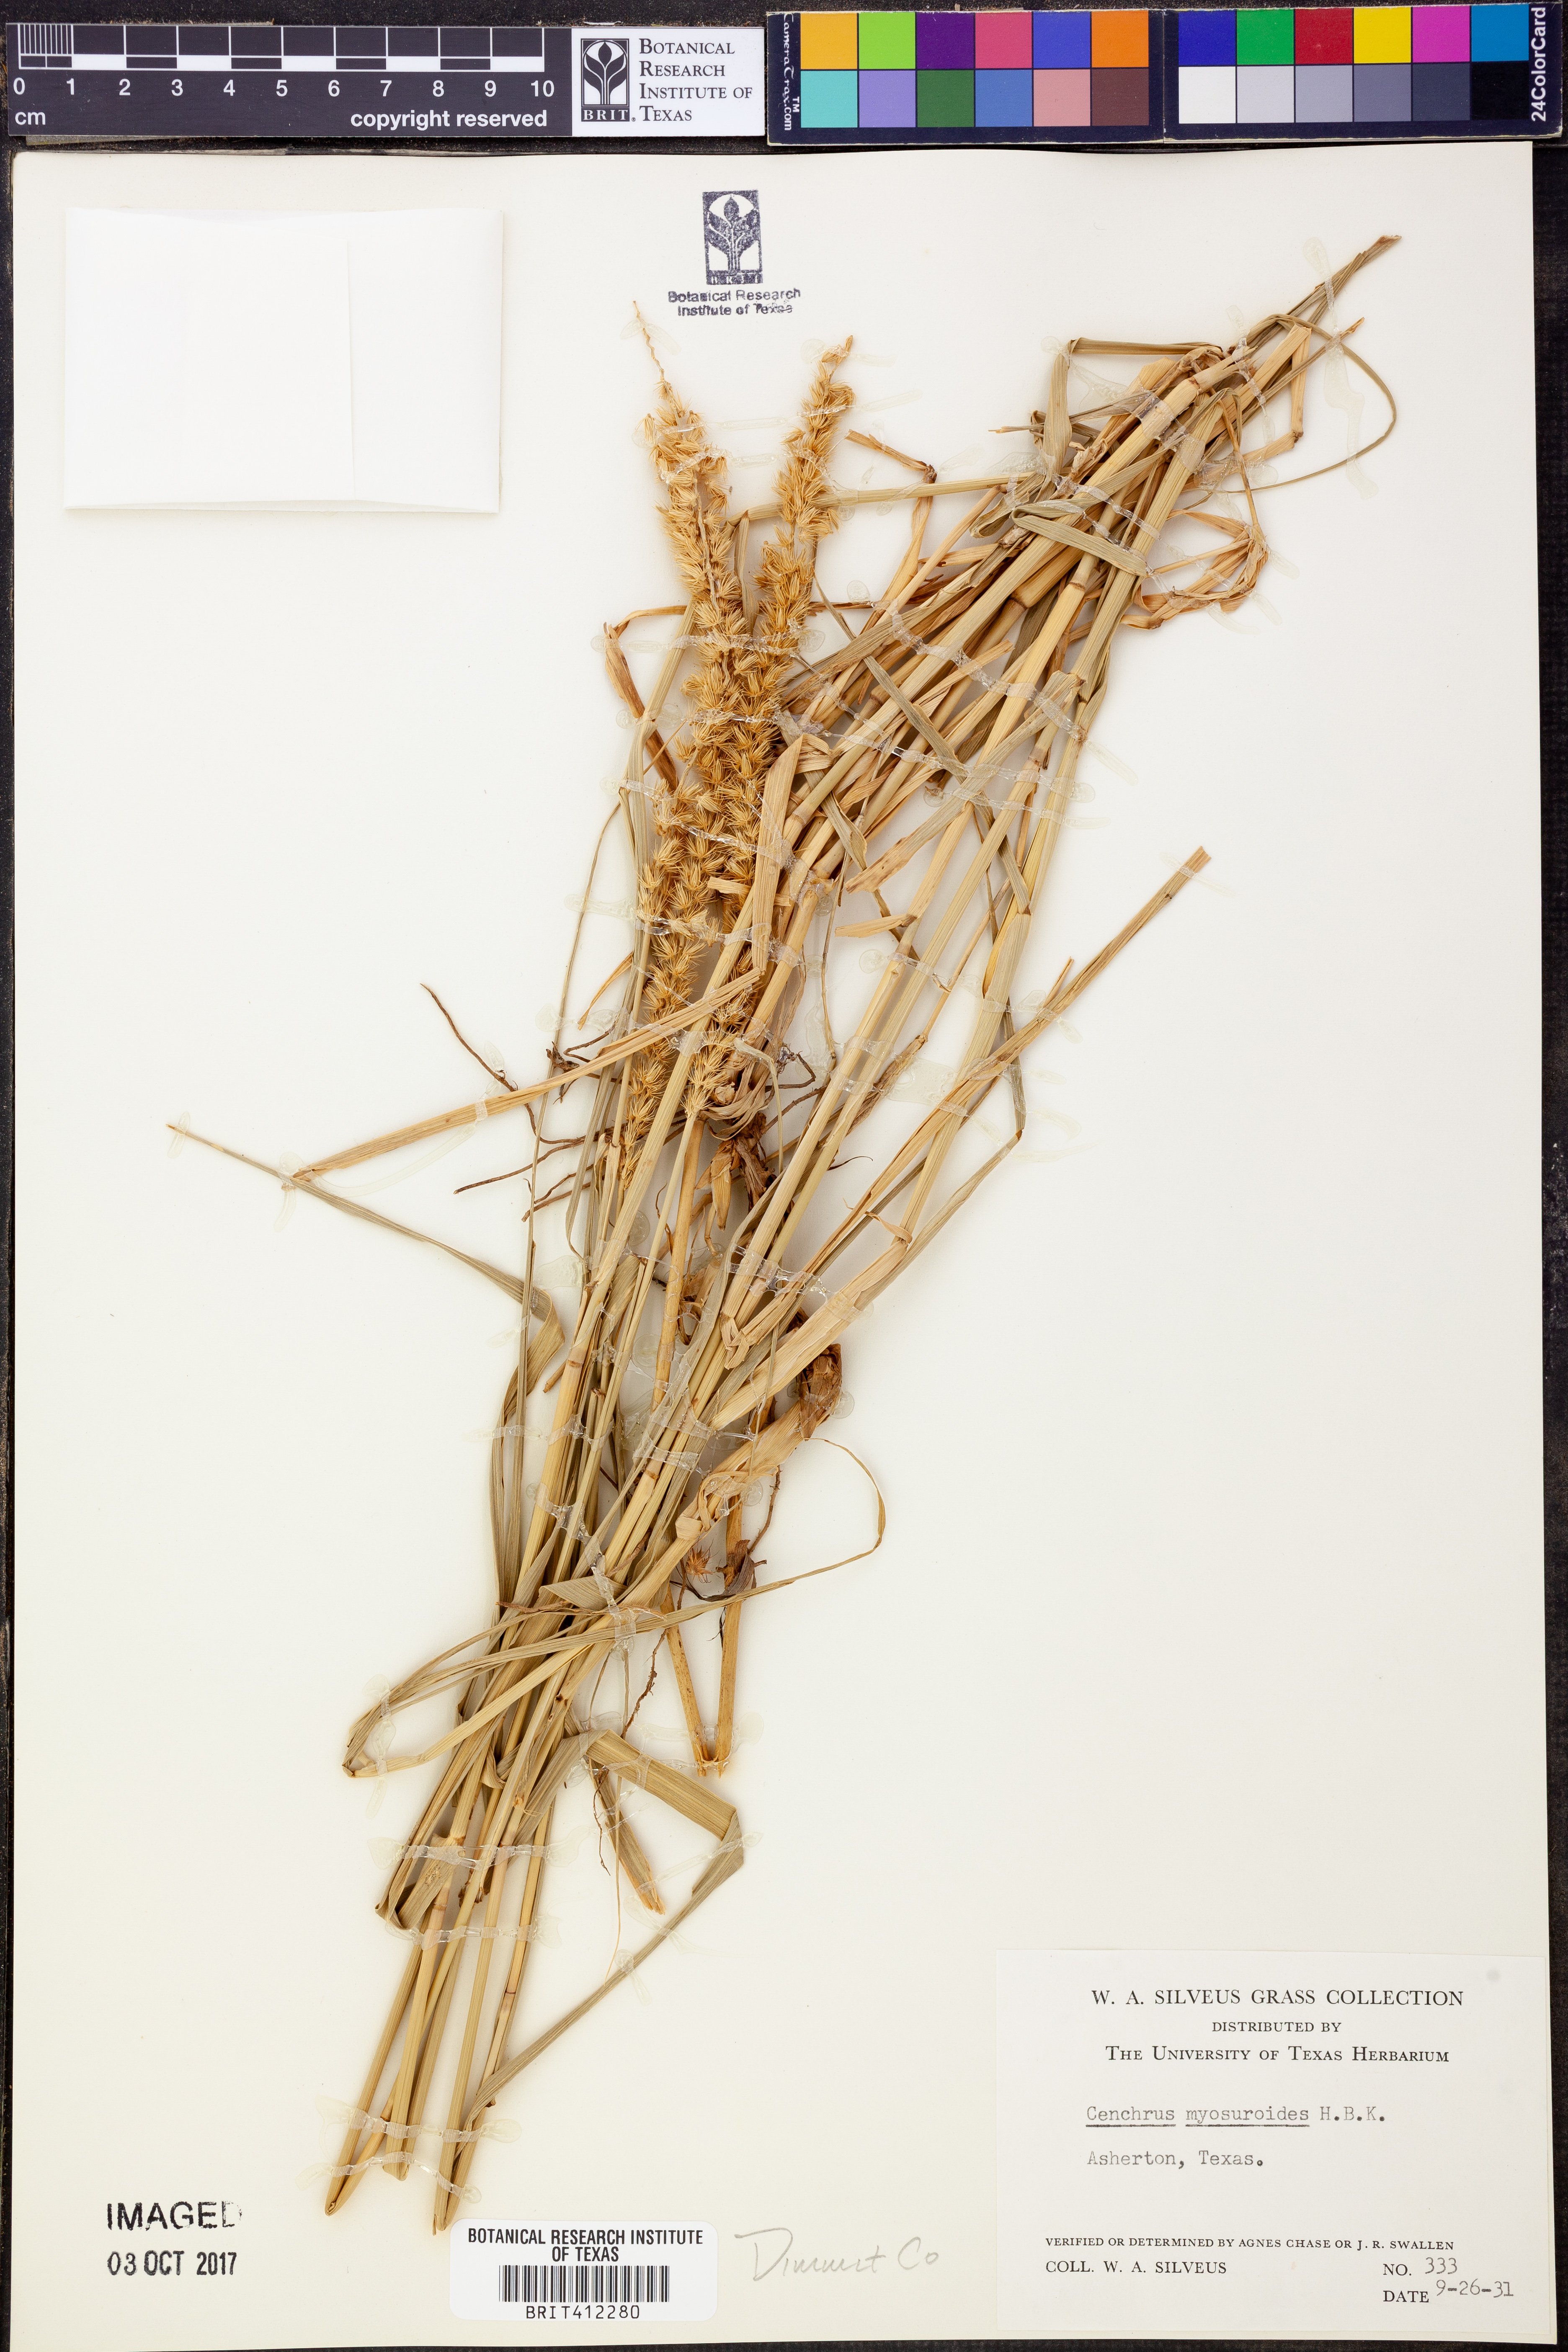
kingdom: Plantae
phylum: Tracheophyta
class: Liliopsida
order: Poales
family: Poaceae
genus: Cenchrus
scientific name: Cenchrus myosuroides
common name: Big sandbur
